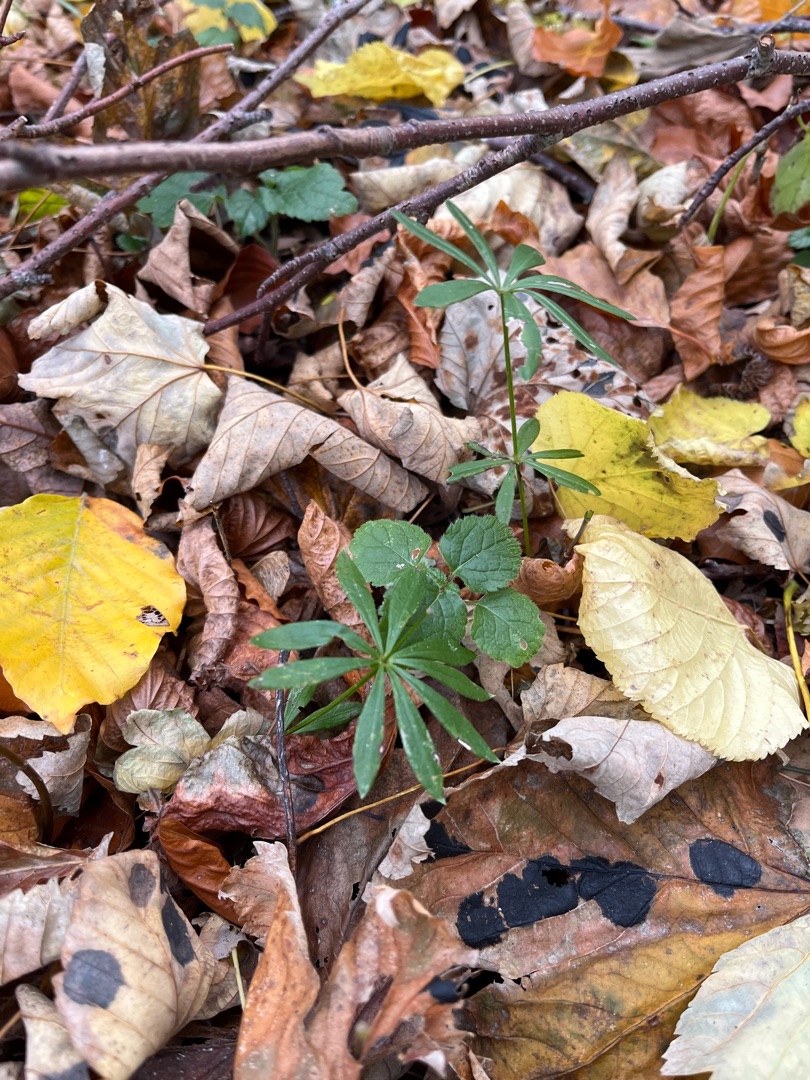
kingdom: Plantae
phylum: Tracheophyta
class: Magnoliopsida
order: Gentianales
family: Rubiaceae
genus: Galium
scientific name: Galium odoratum
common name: Skovmærke
